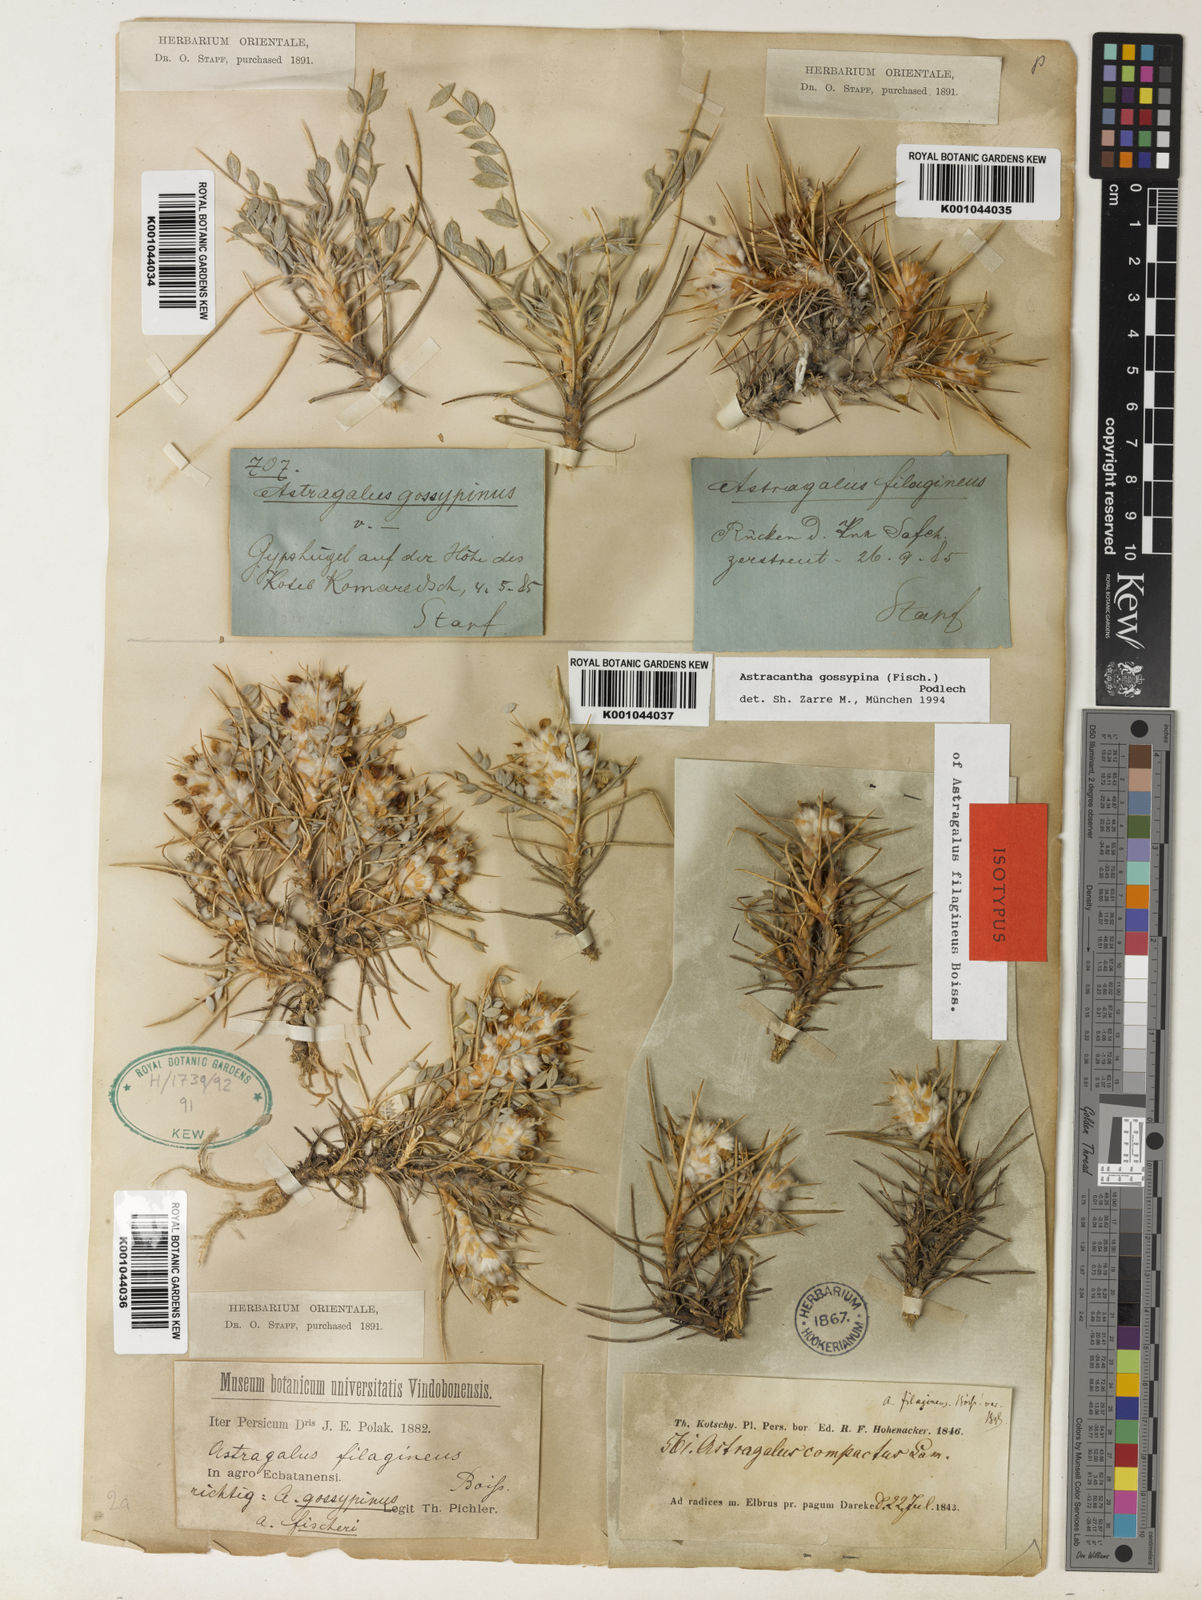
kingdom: Plantae
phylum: Tracheophyta
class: Magnoliopsida
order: Fabales
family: Fabaceae
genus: Astragalus
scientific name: Astragalus gossypinus
